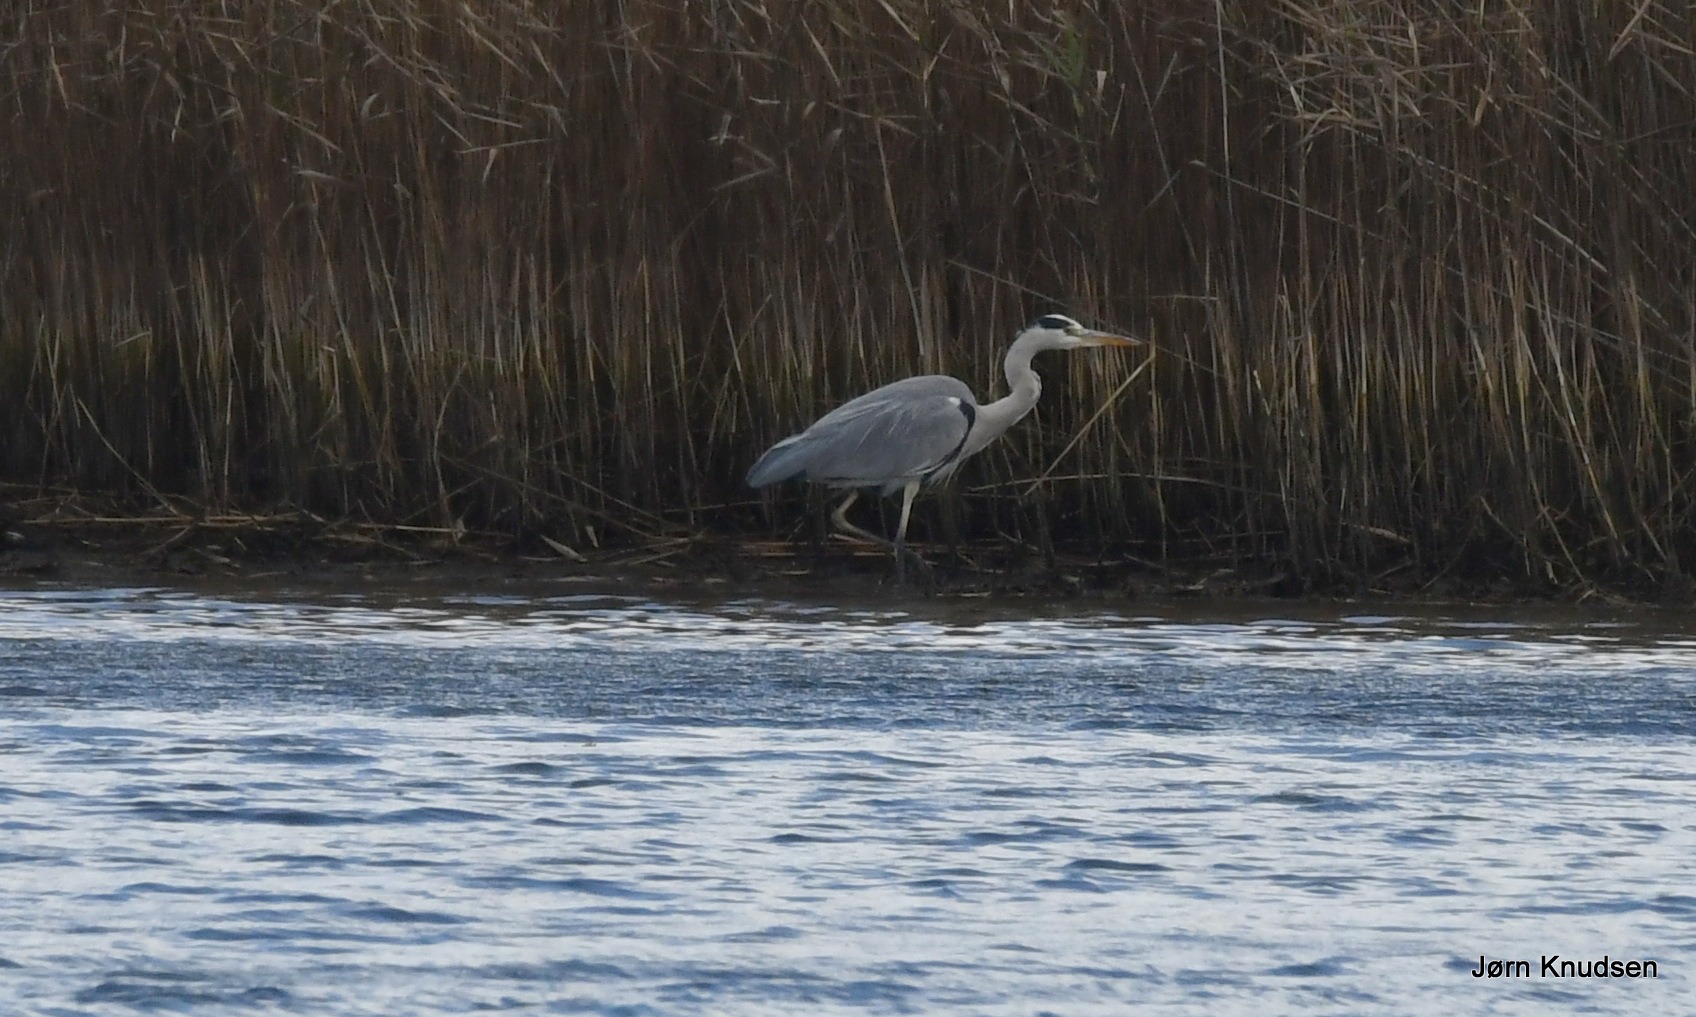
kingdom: Animalia
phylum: Chordata
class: Aves
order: Pelecaniformes
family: Ardeidae
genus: Ardea
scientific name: Ardea cinerea
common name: Fiskehejre
